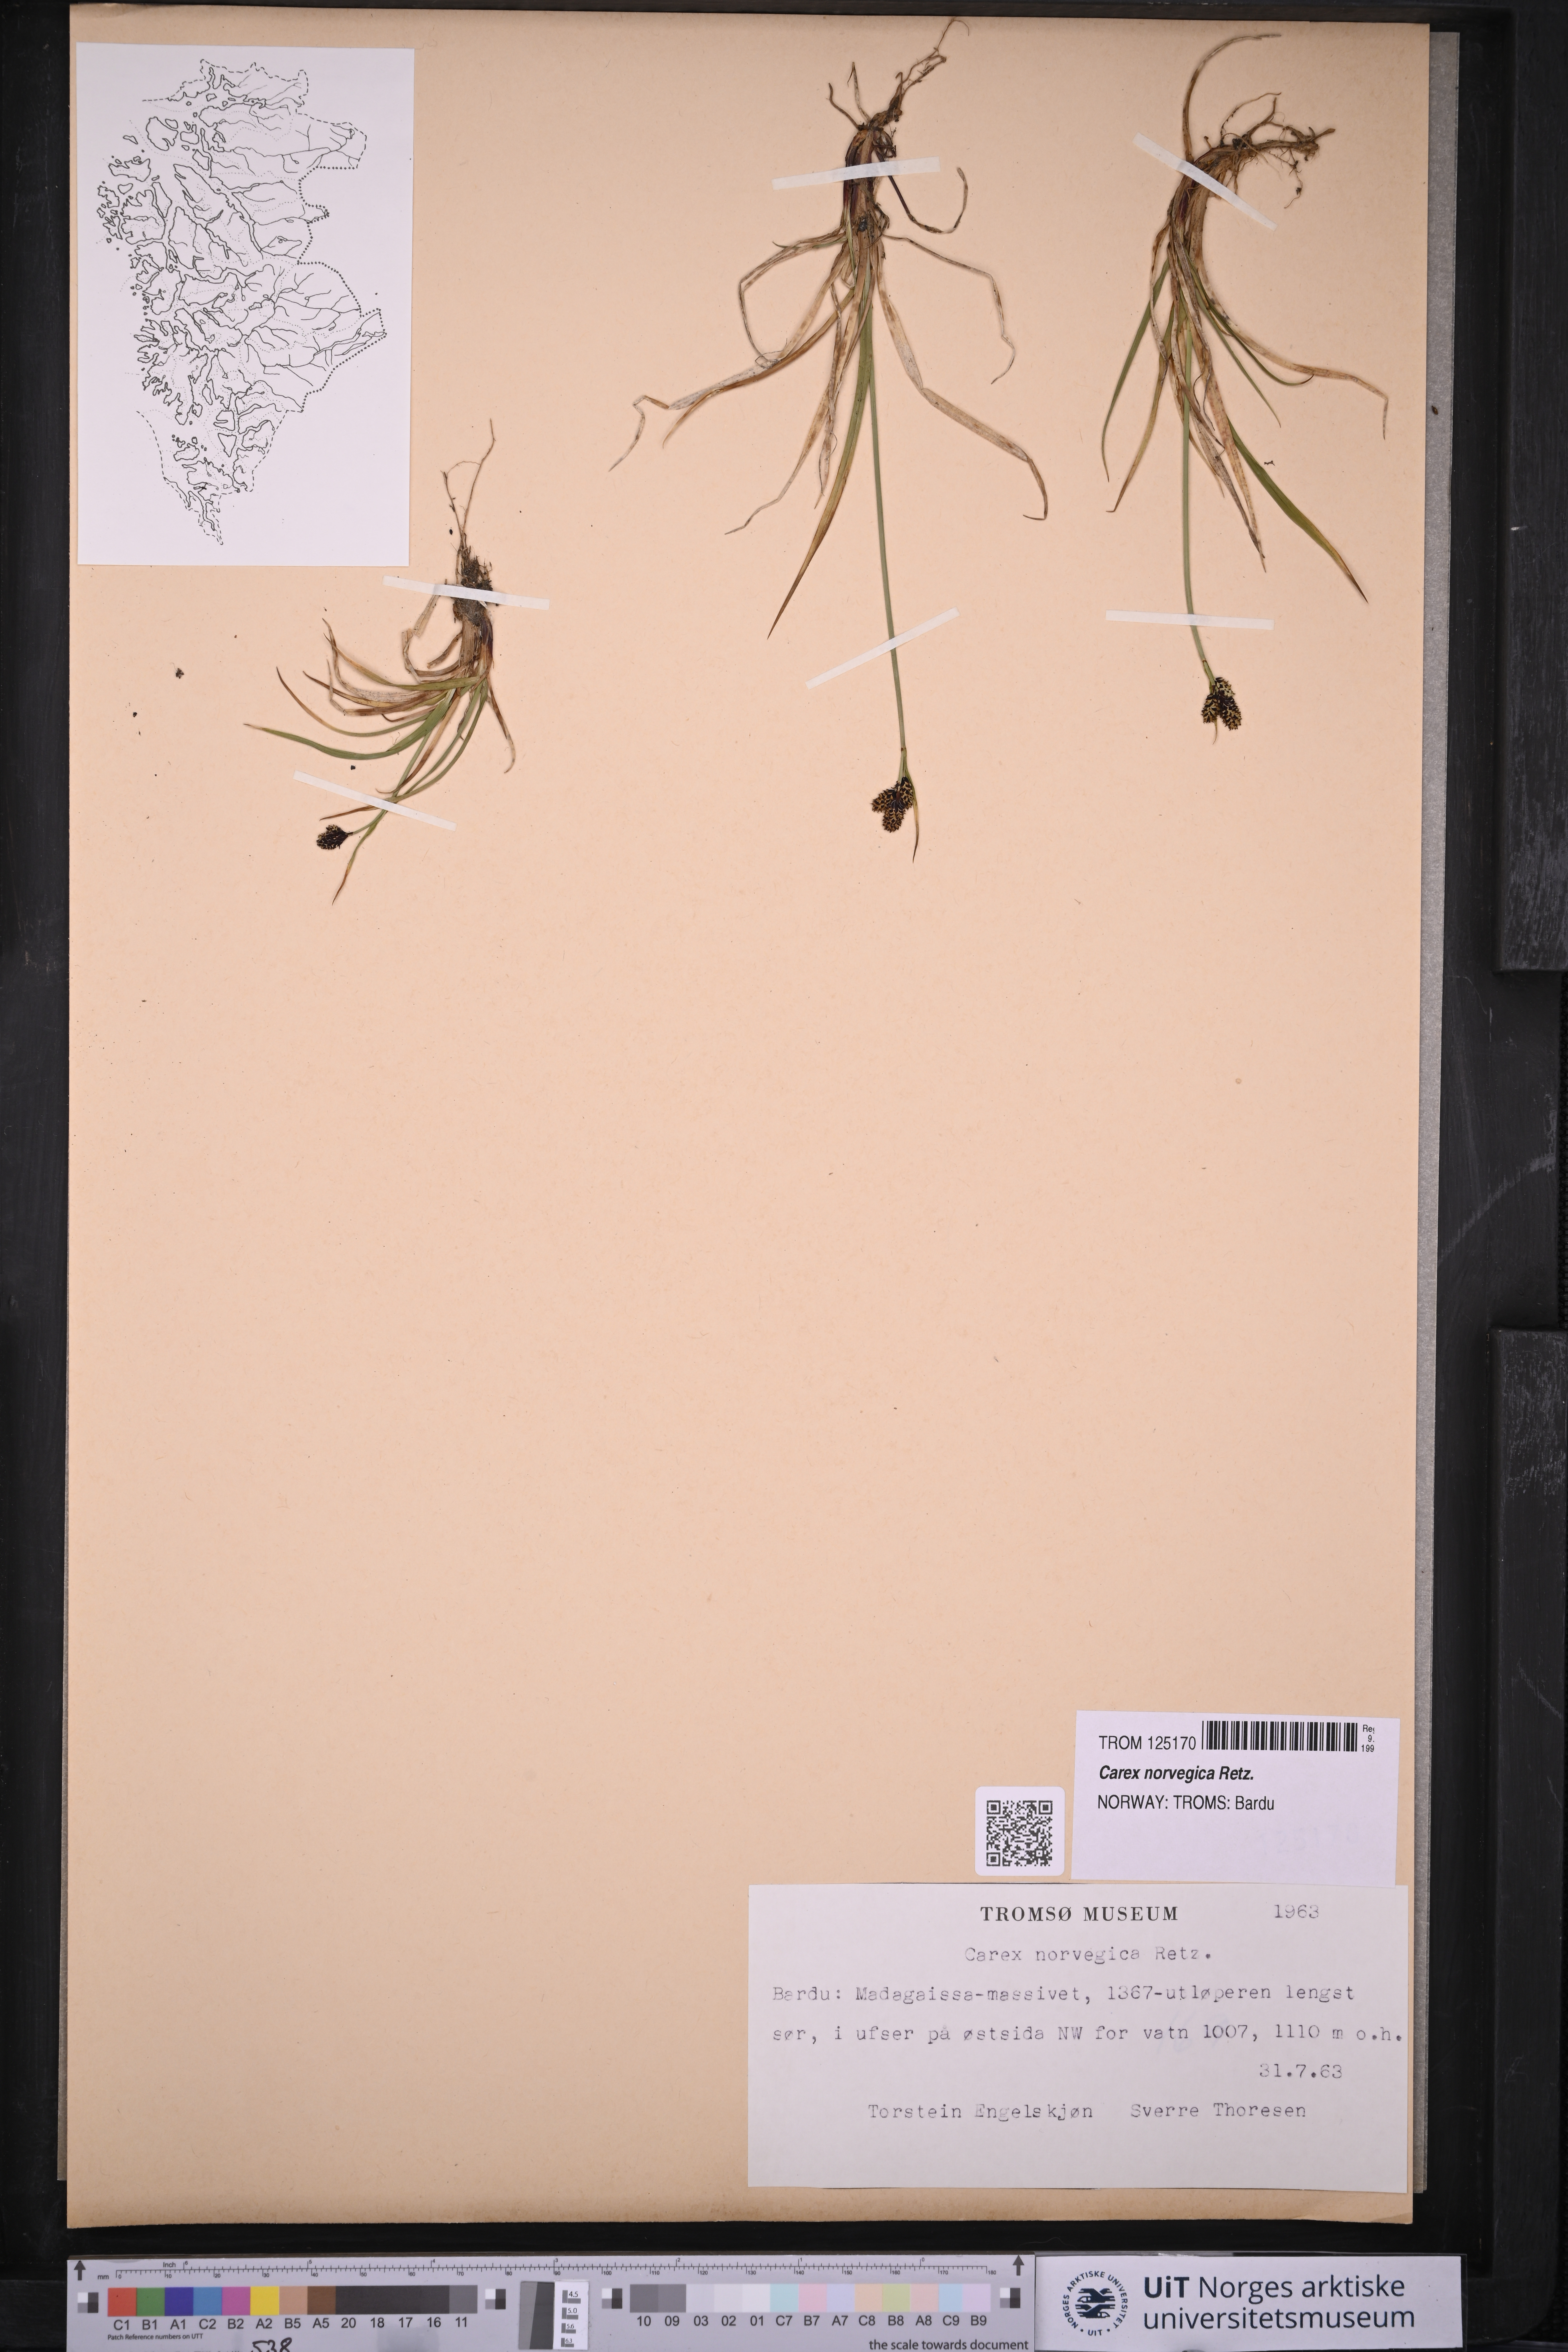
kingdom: Plantae
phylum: Tracheophyta
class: Liliopsida
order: Poales
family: Cyperaceae
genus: Carex
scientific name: Carex norvegica
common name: Close-headed alpine-sedge
